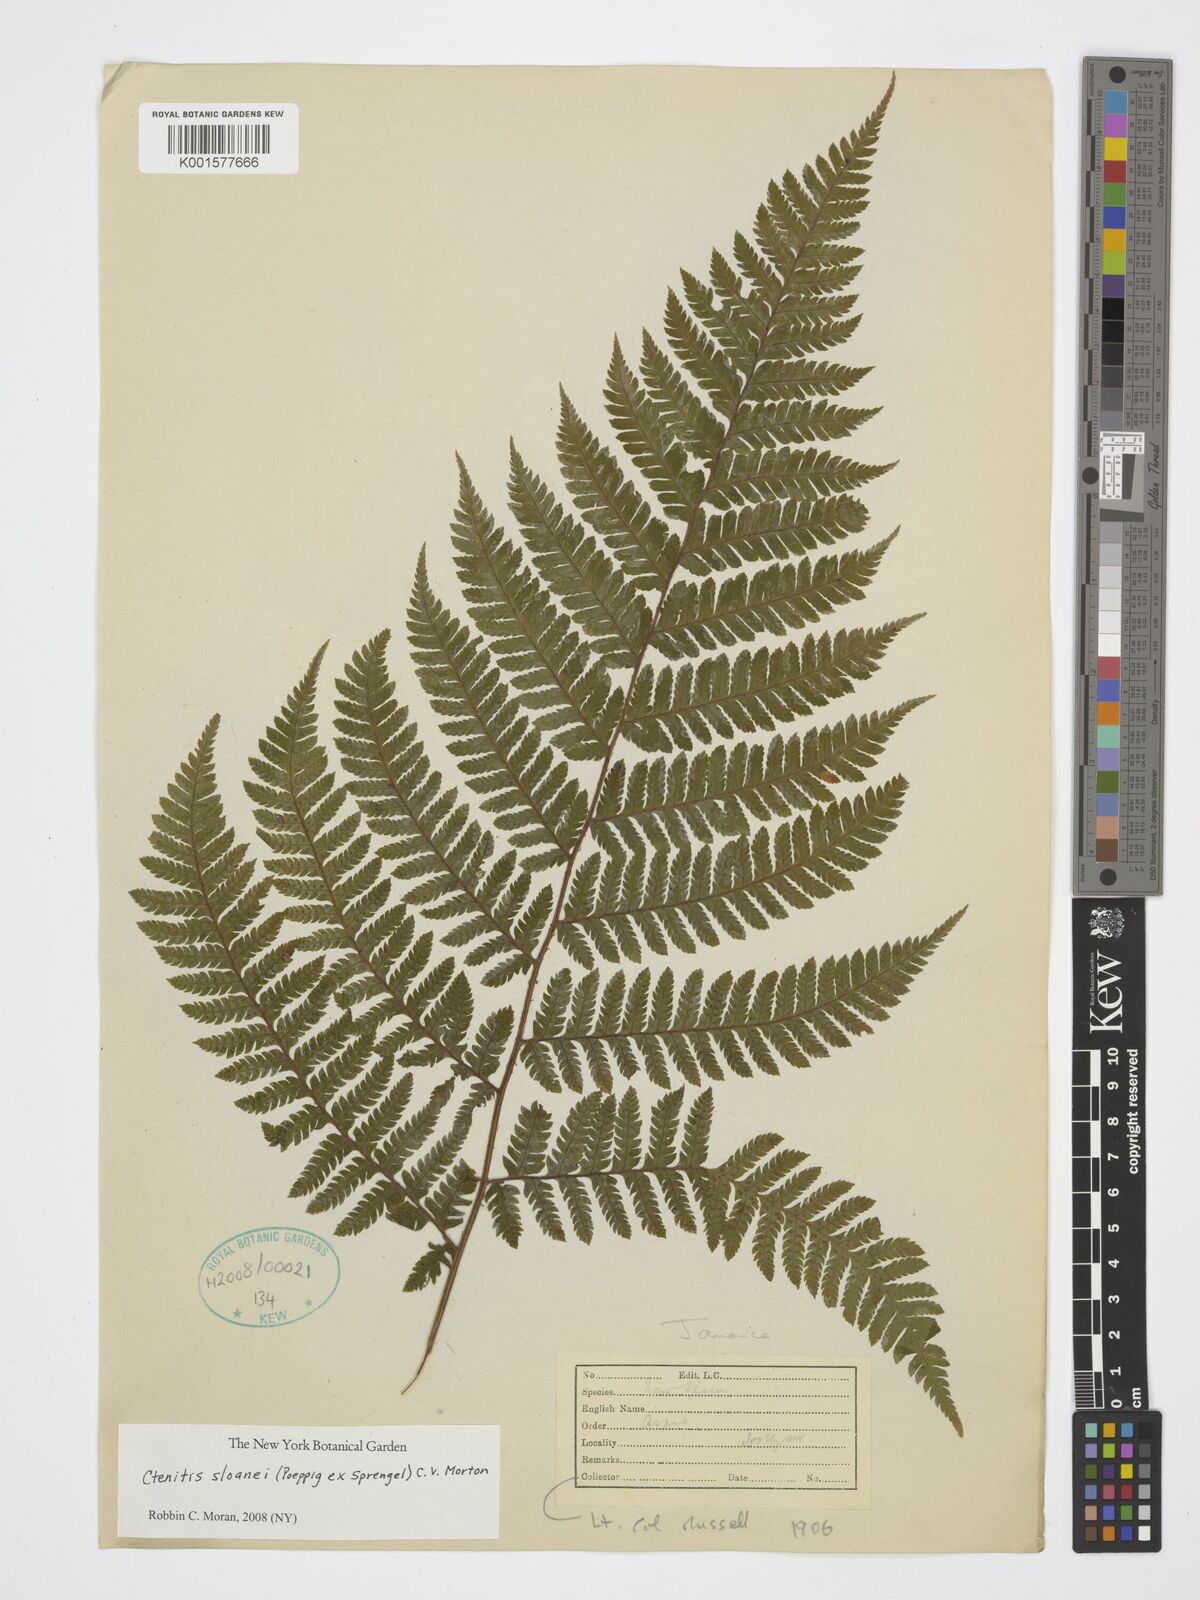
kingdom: Plantae
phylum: Tracheophyta
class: Polypodiopsida
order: Polypodiales
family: Dryopteridaceae
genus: Ctenitis
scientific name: Ctenitis sloanei
